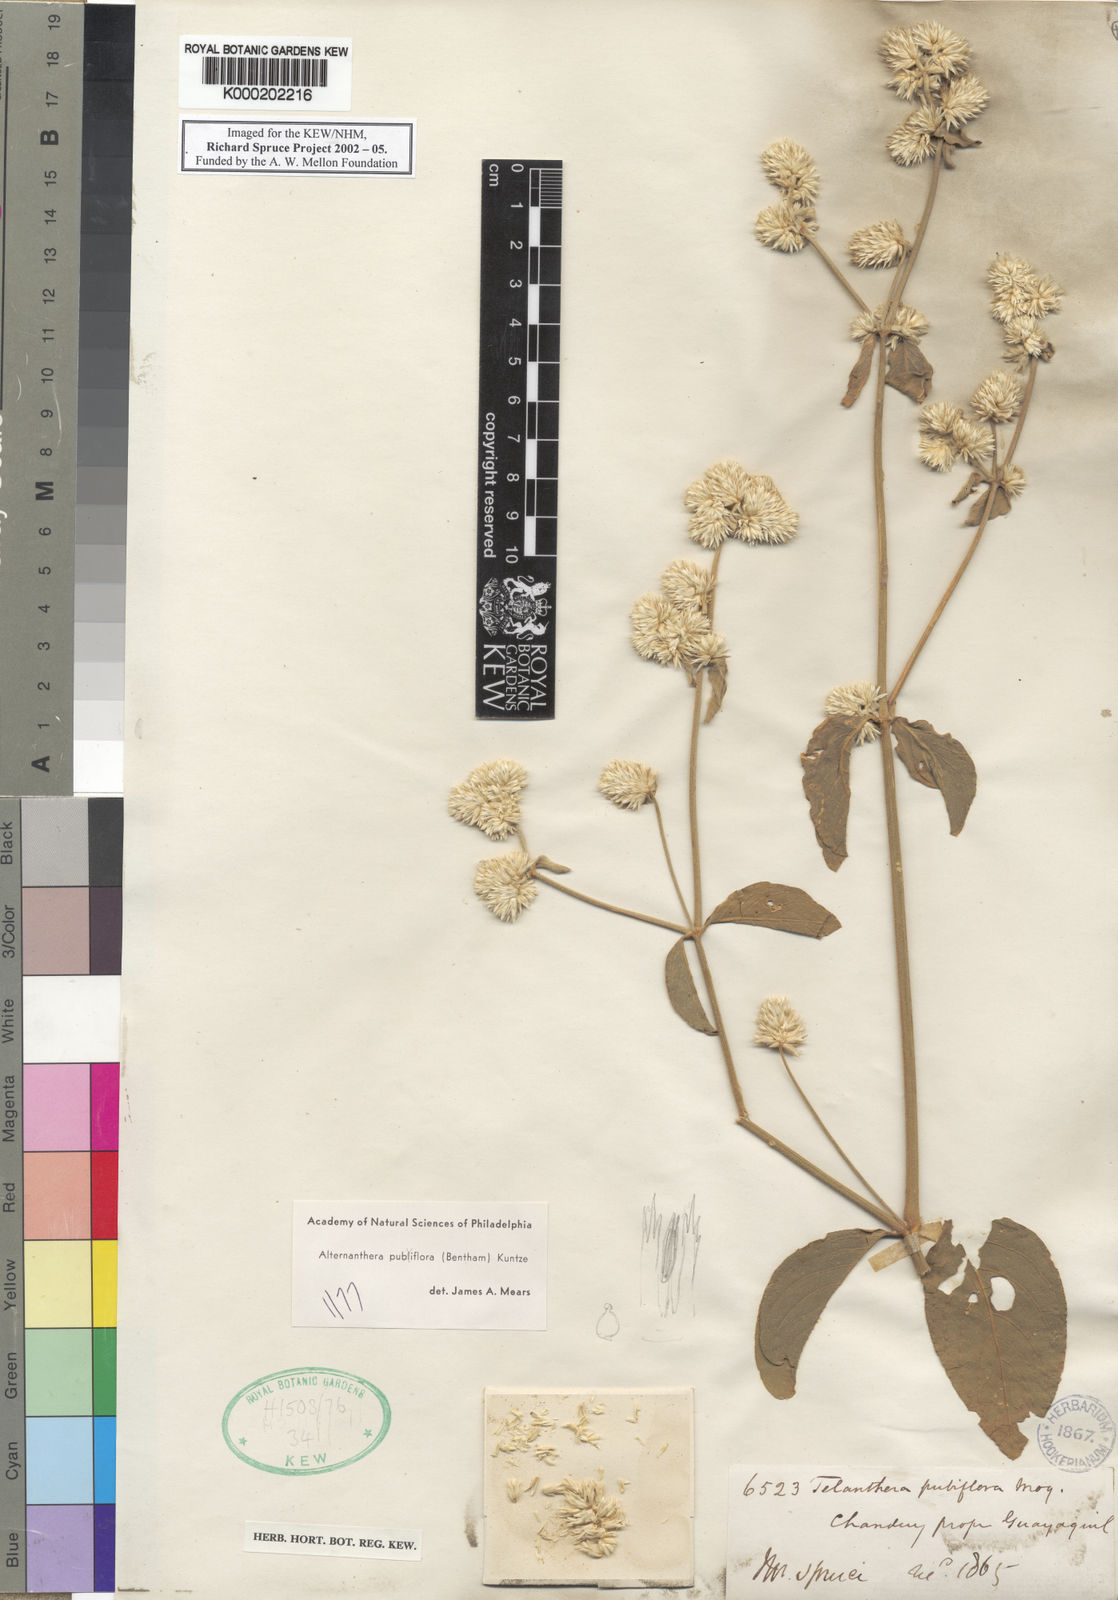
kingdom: Plantae
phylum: Tracheophyta
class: Magnoliopsida
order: Caryophyllales
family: Amaranthaceae
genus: Alternanthera
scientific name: Alternanthera pubiflora
